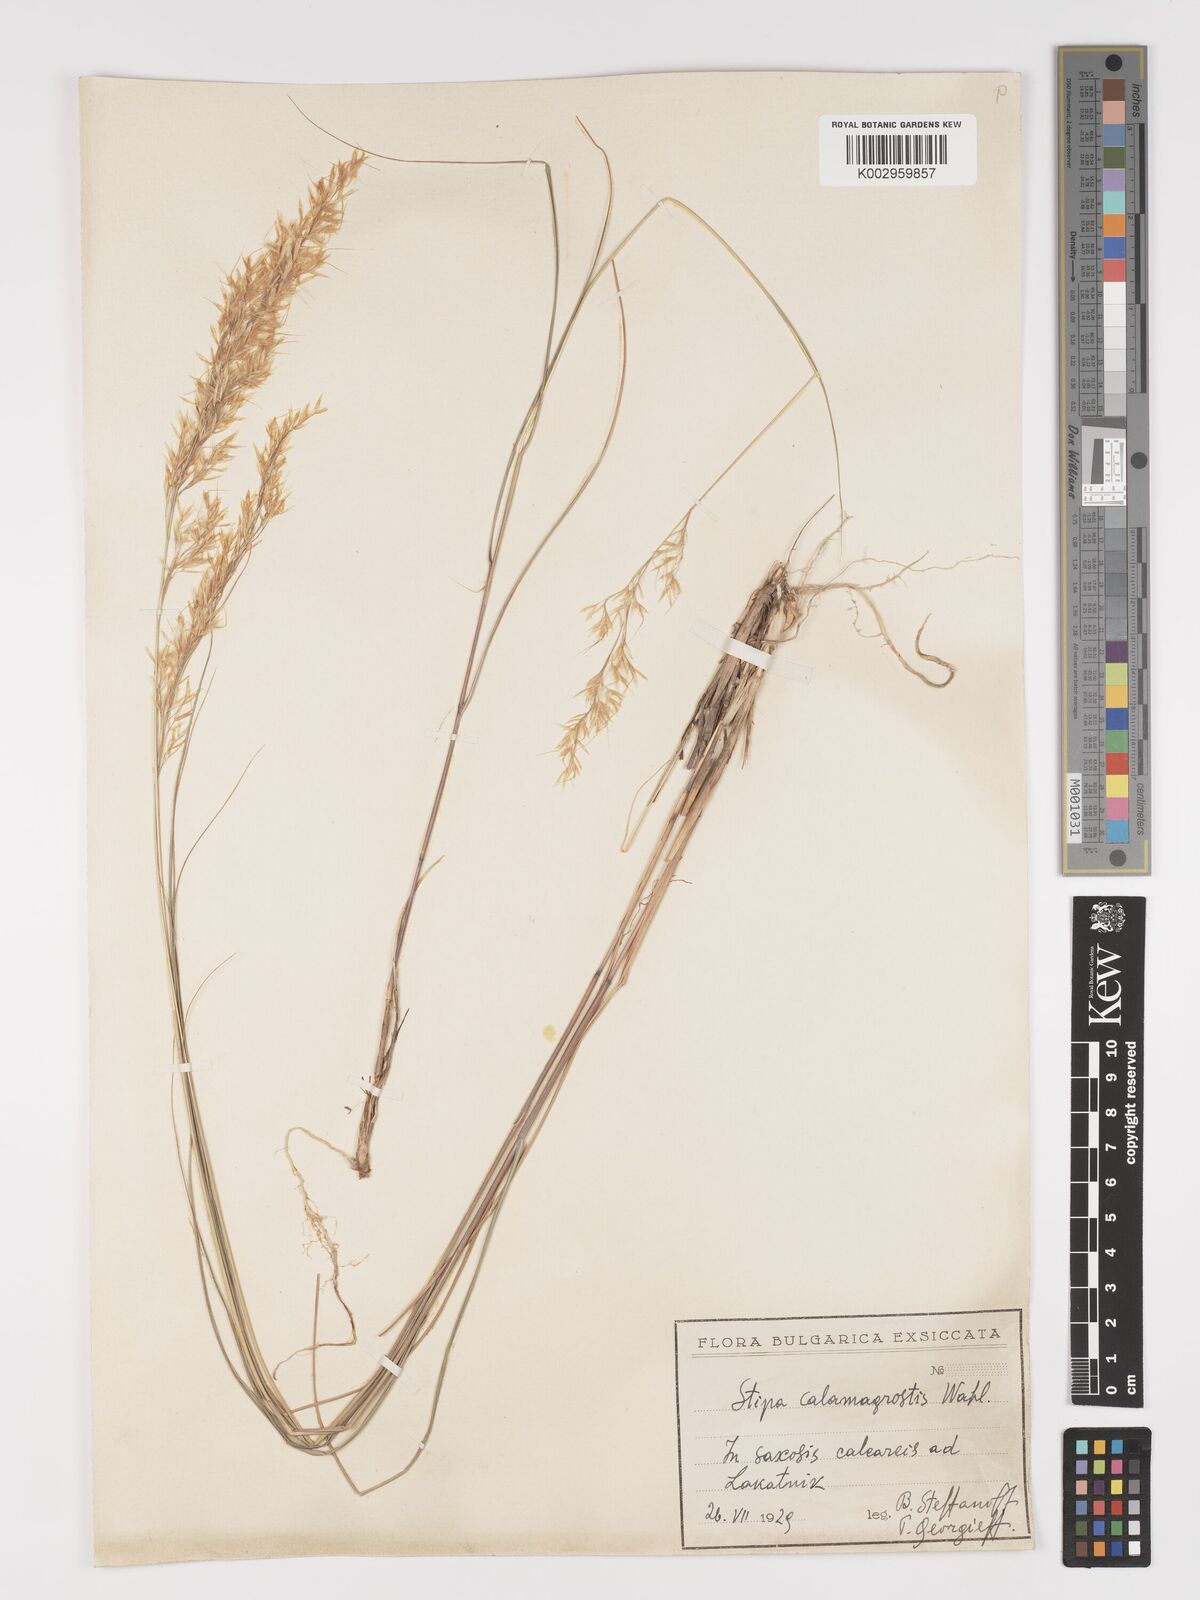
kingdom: Plantae
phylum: Tracheophyta
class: Liliopsida
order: Poales
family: Poaceae
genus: Achnatherum
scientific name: Achnatherum calamagrostis
